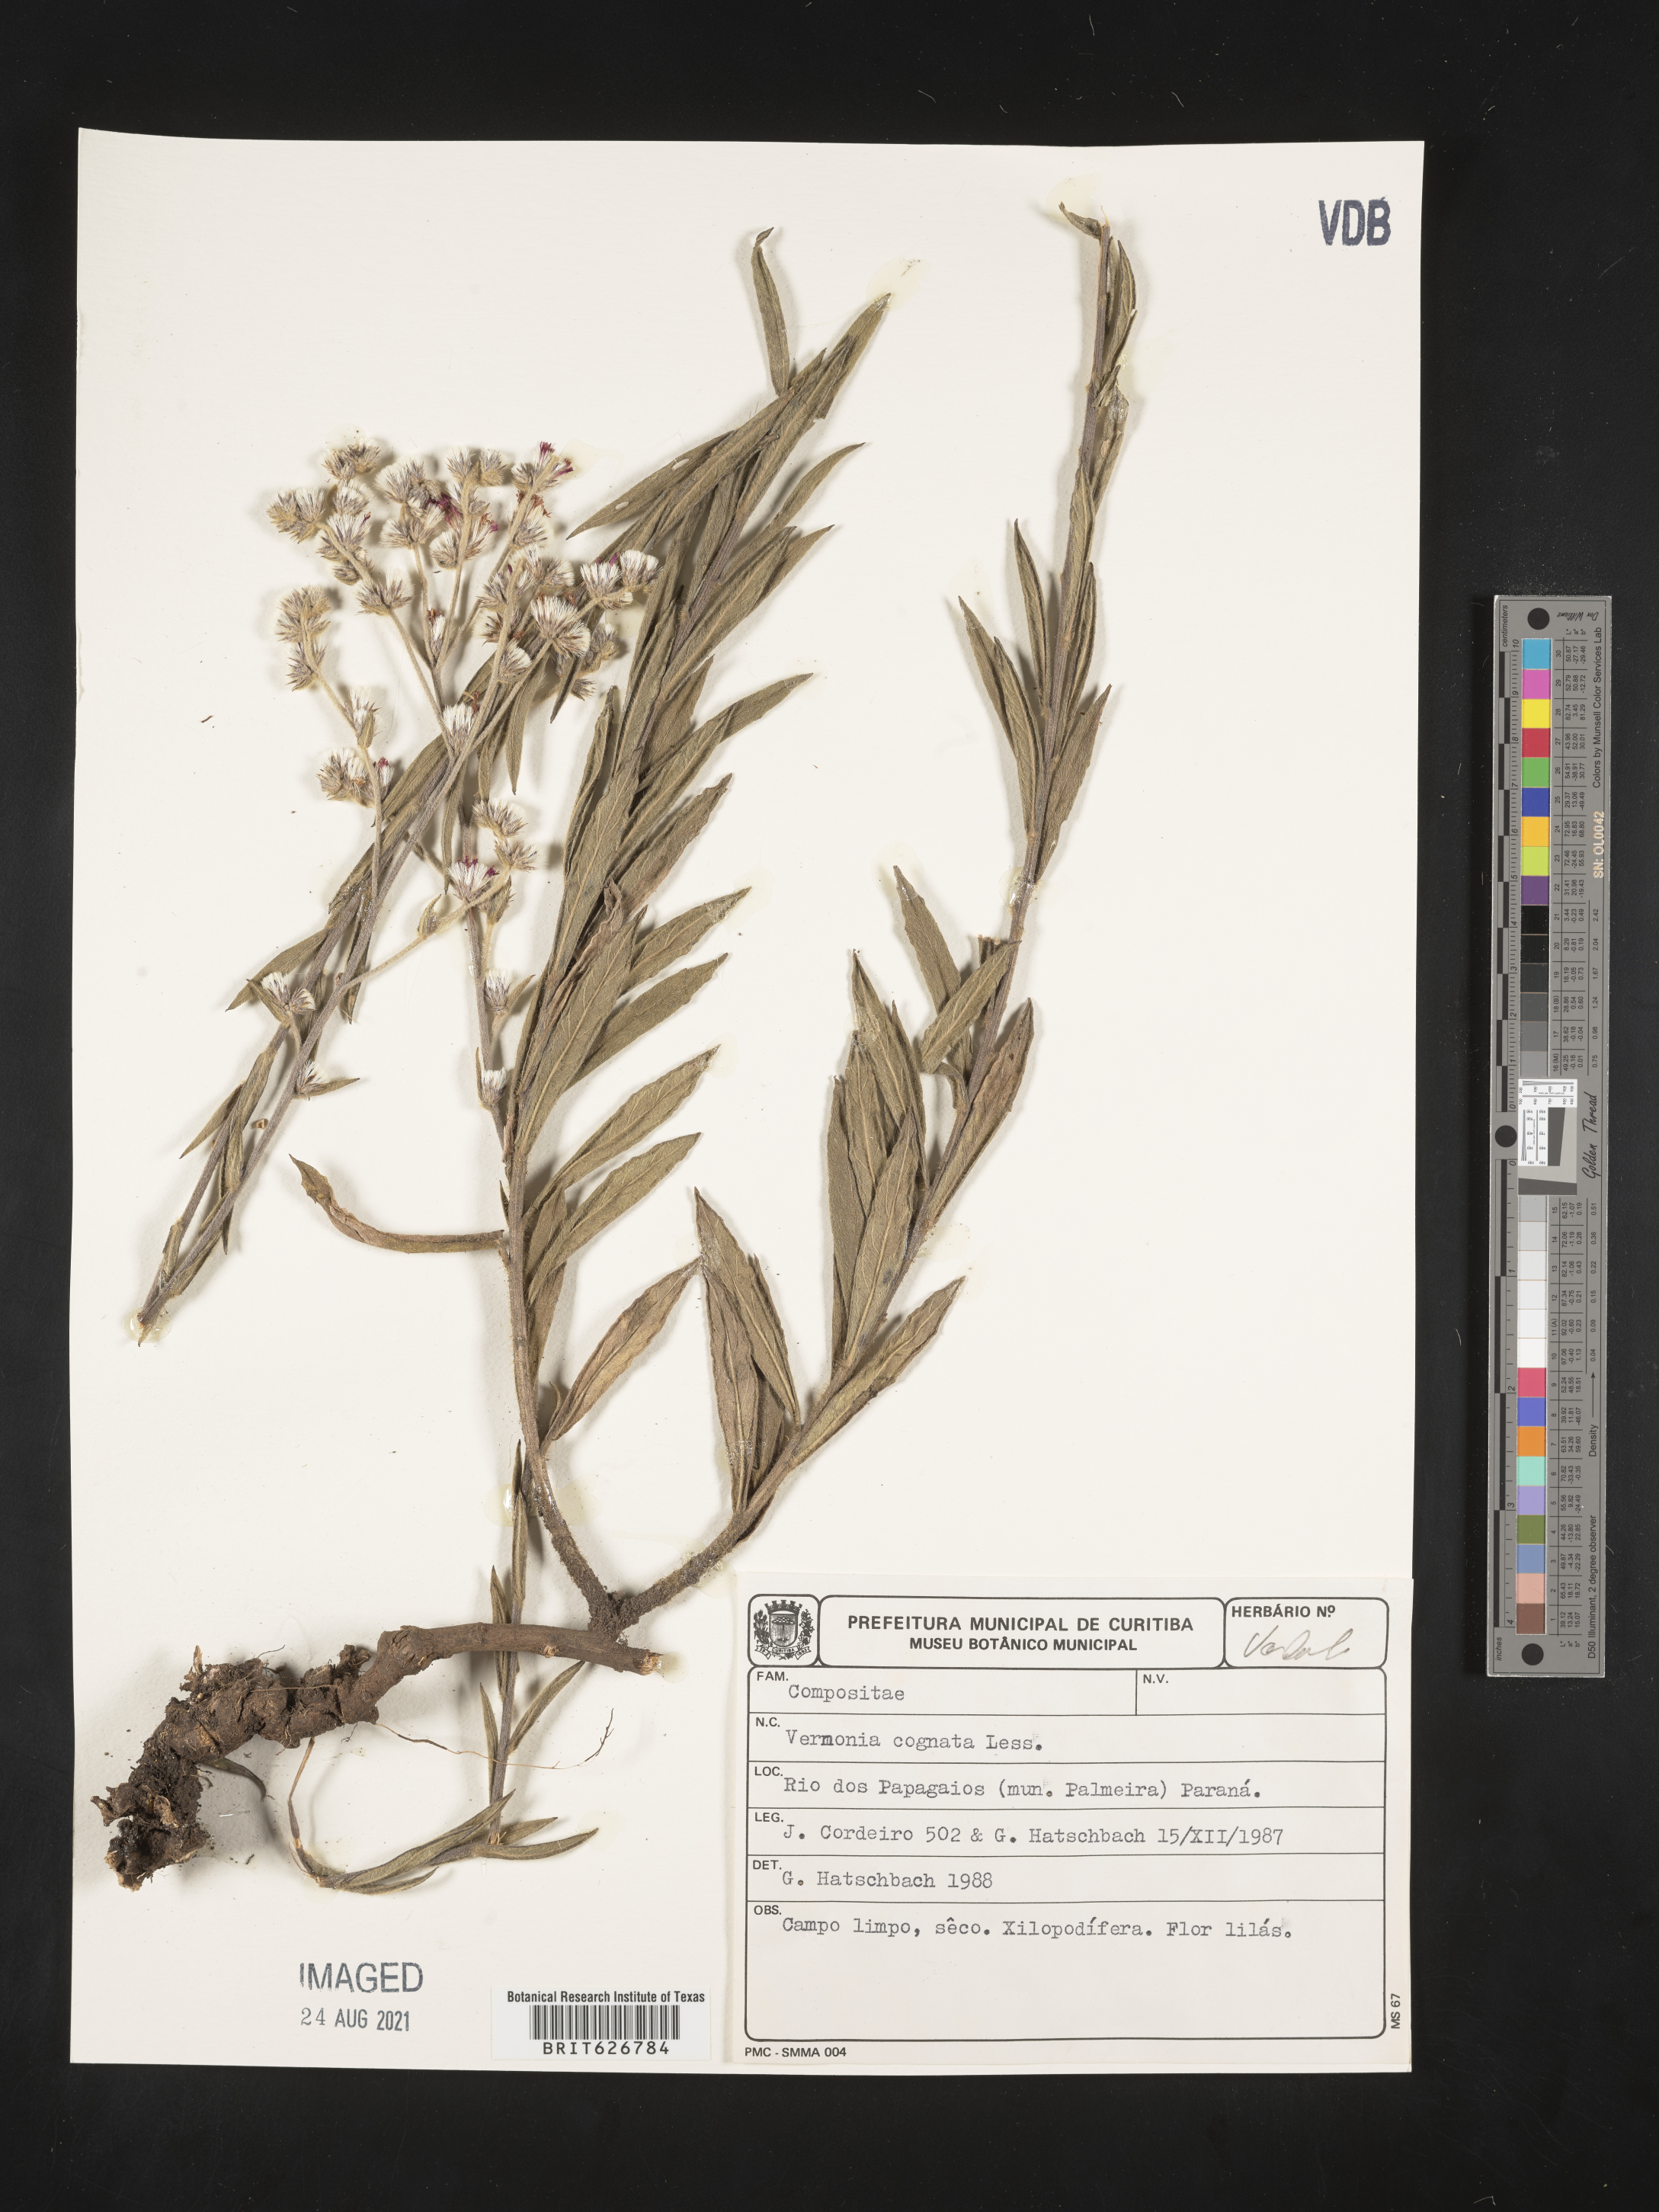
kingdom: Plantae
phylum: Tracheophyta
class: Magnoliopsida
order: Asterales
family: Asteraceae
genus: Chrysolaena
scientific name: Chrysolaena cognata
